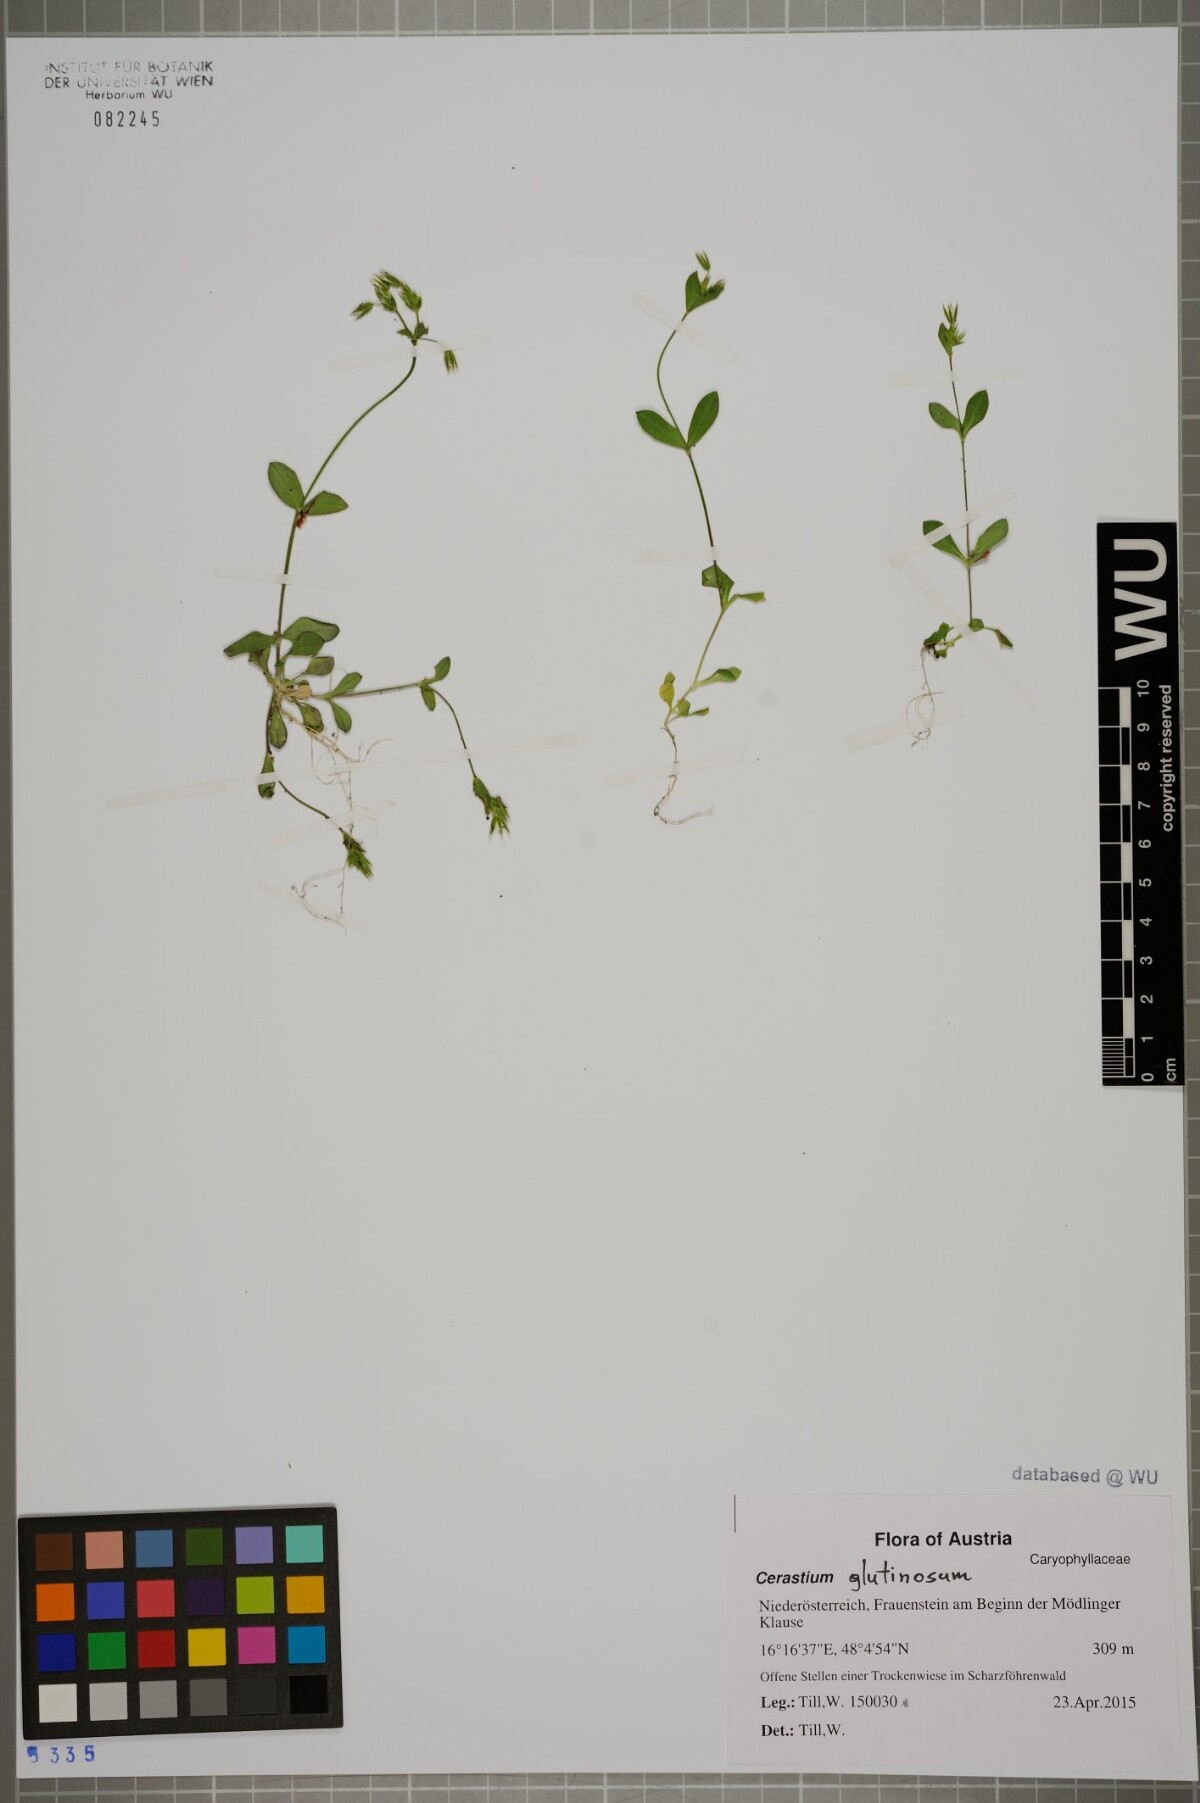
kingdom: Plantae
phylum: Tracheophyta
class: Magnoliopsida
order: Caryophyllales
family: Caryophyllaceae
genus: Cerastium
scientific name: Cerastium pumilum
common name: Dwarf mouse-ear
